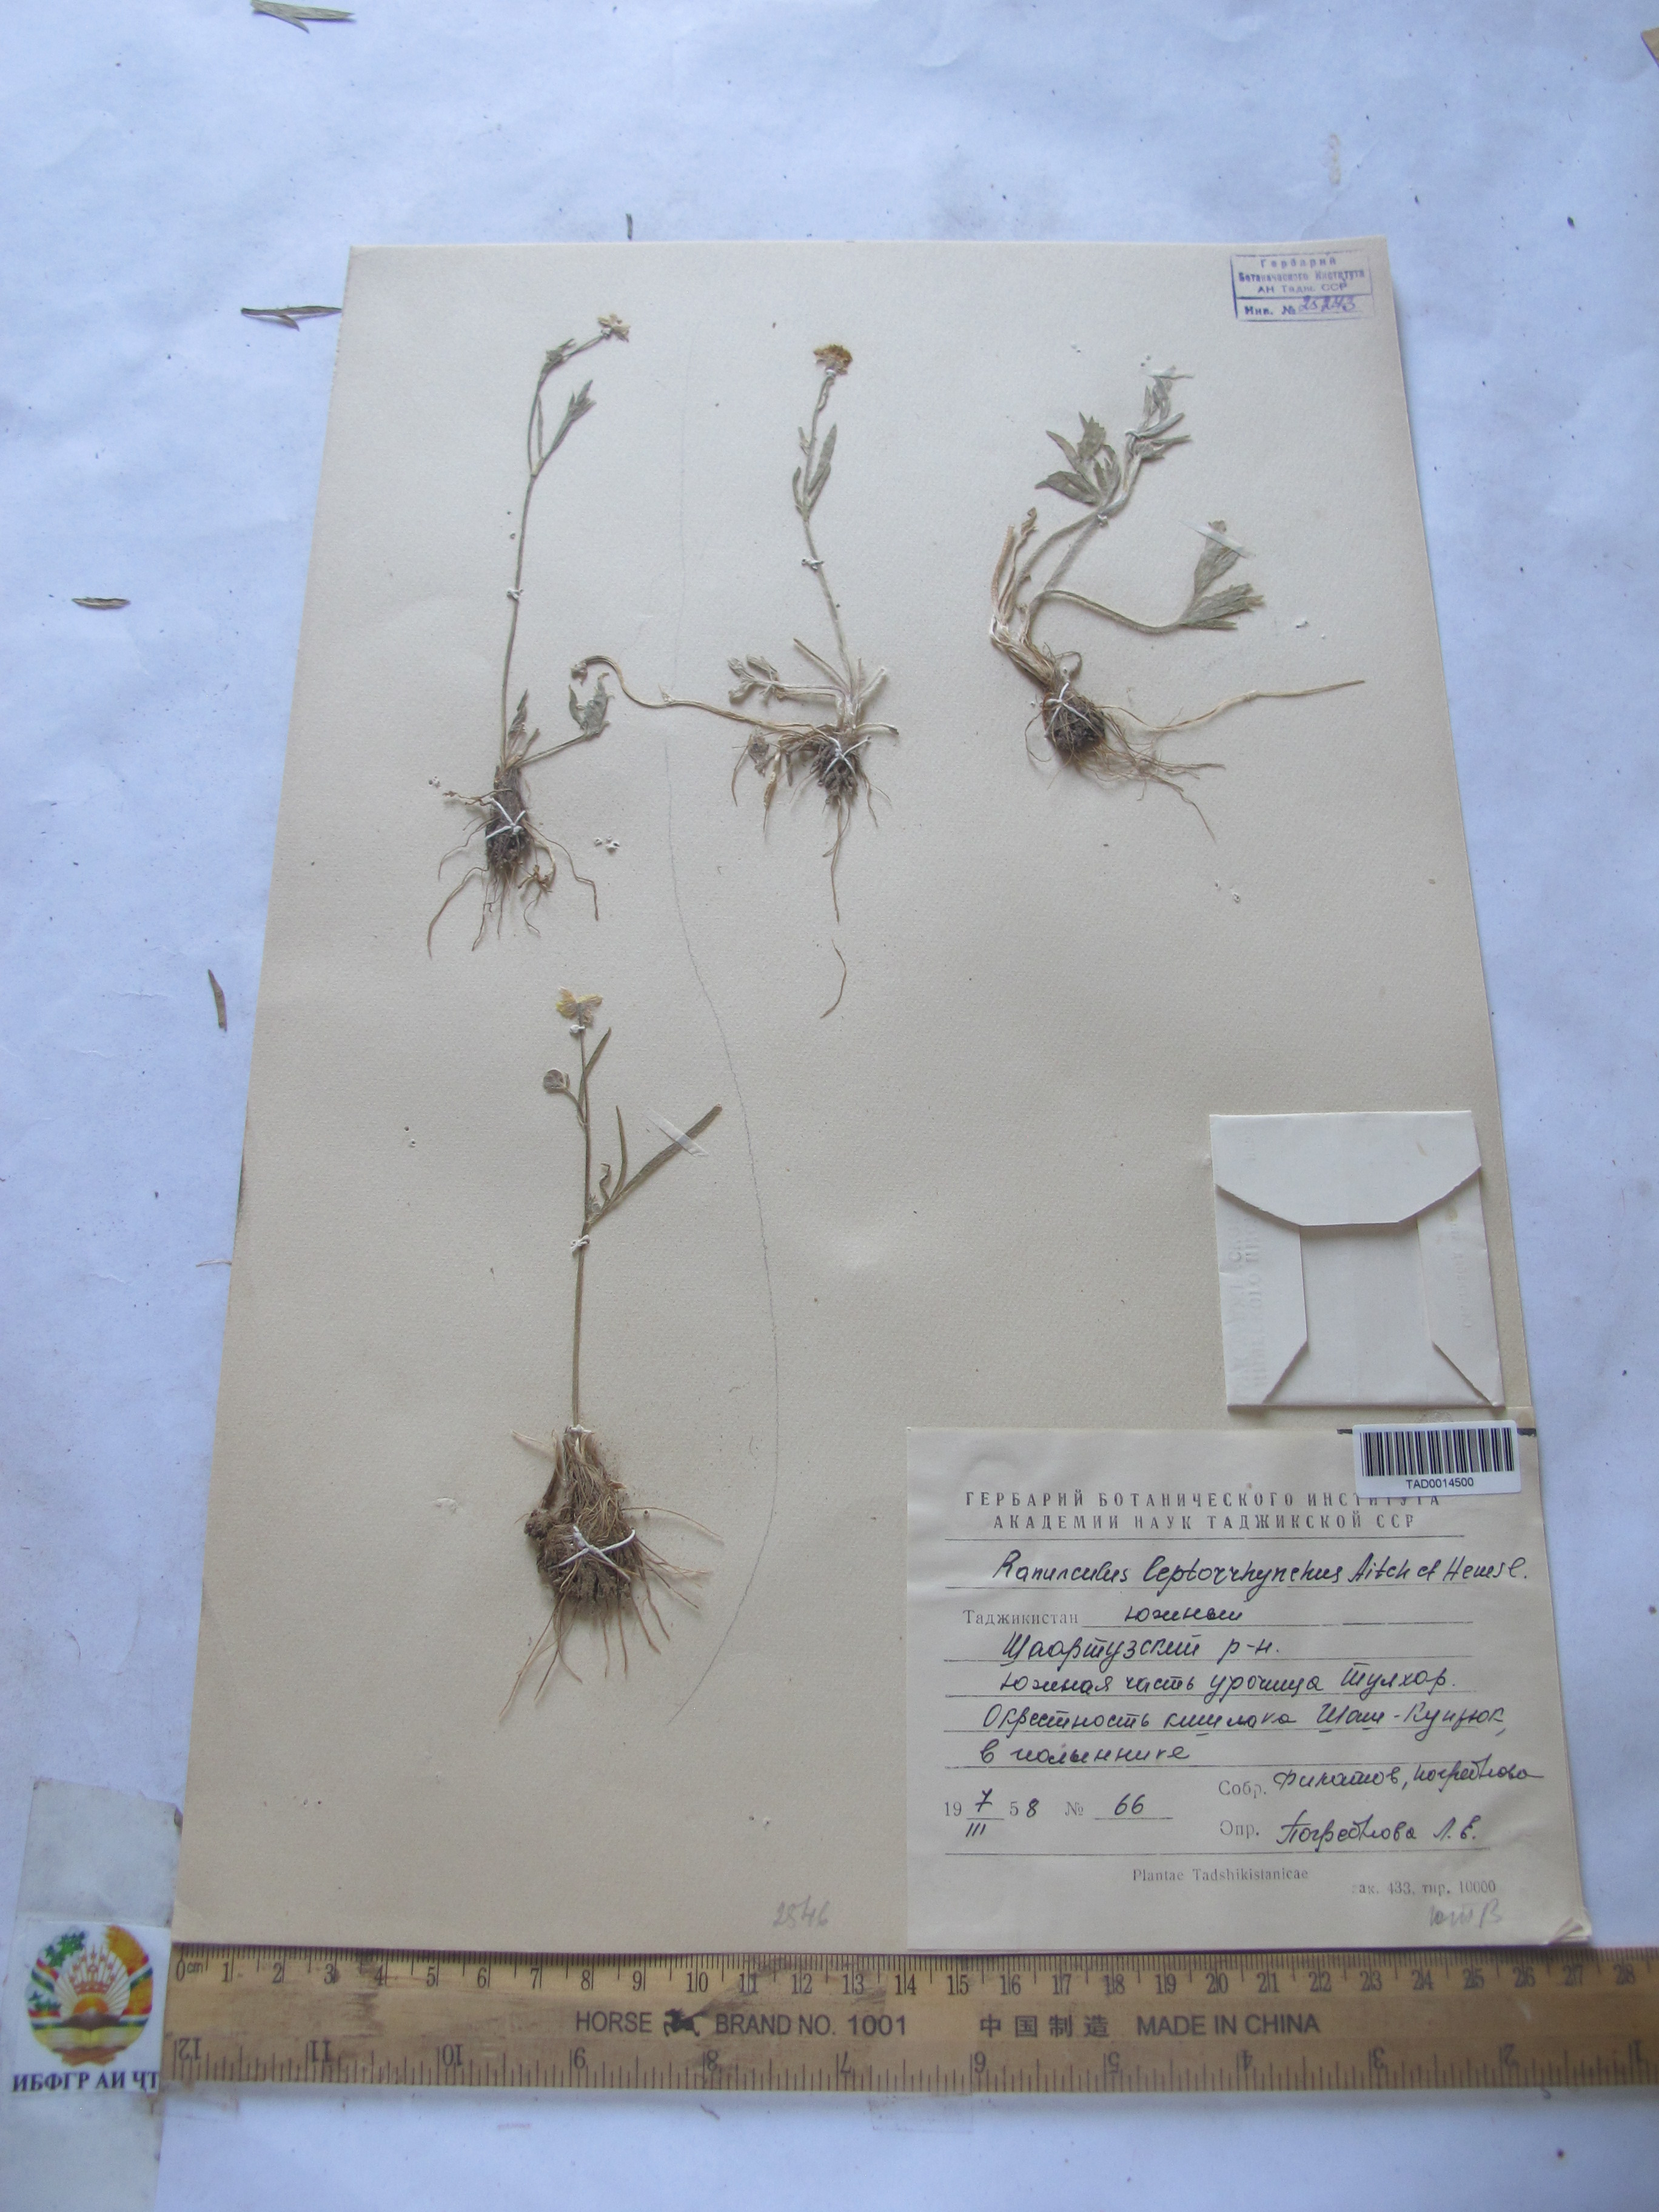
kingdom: Plantae
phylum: Tracheophyta
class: Magnoliopsida
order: Ranunculales
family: Ranunculaceae
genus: Ranunculus
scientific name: Ranunculus leptorrhynchus
